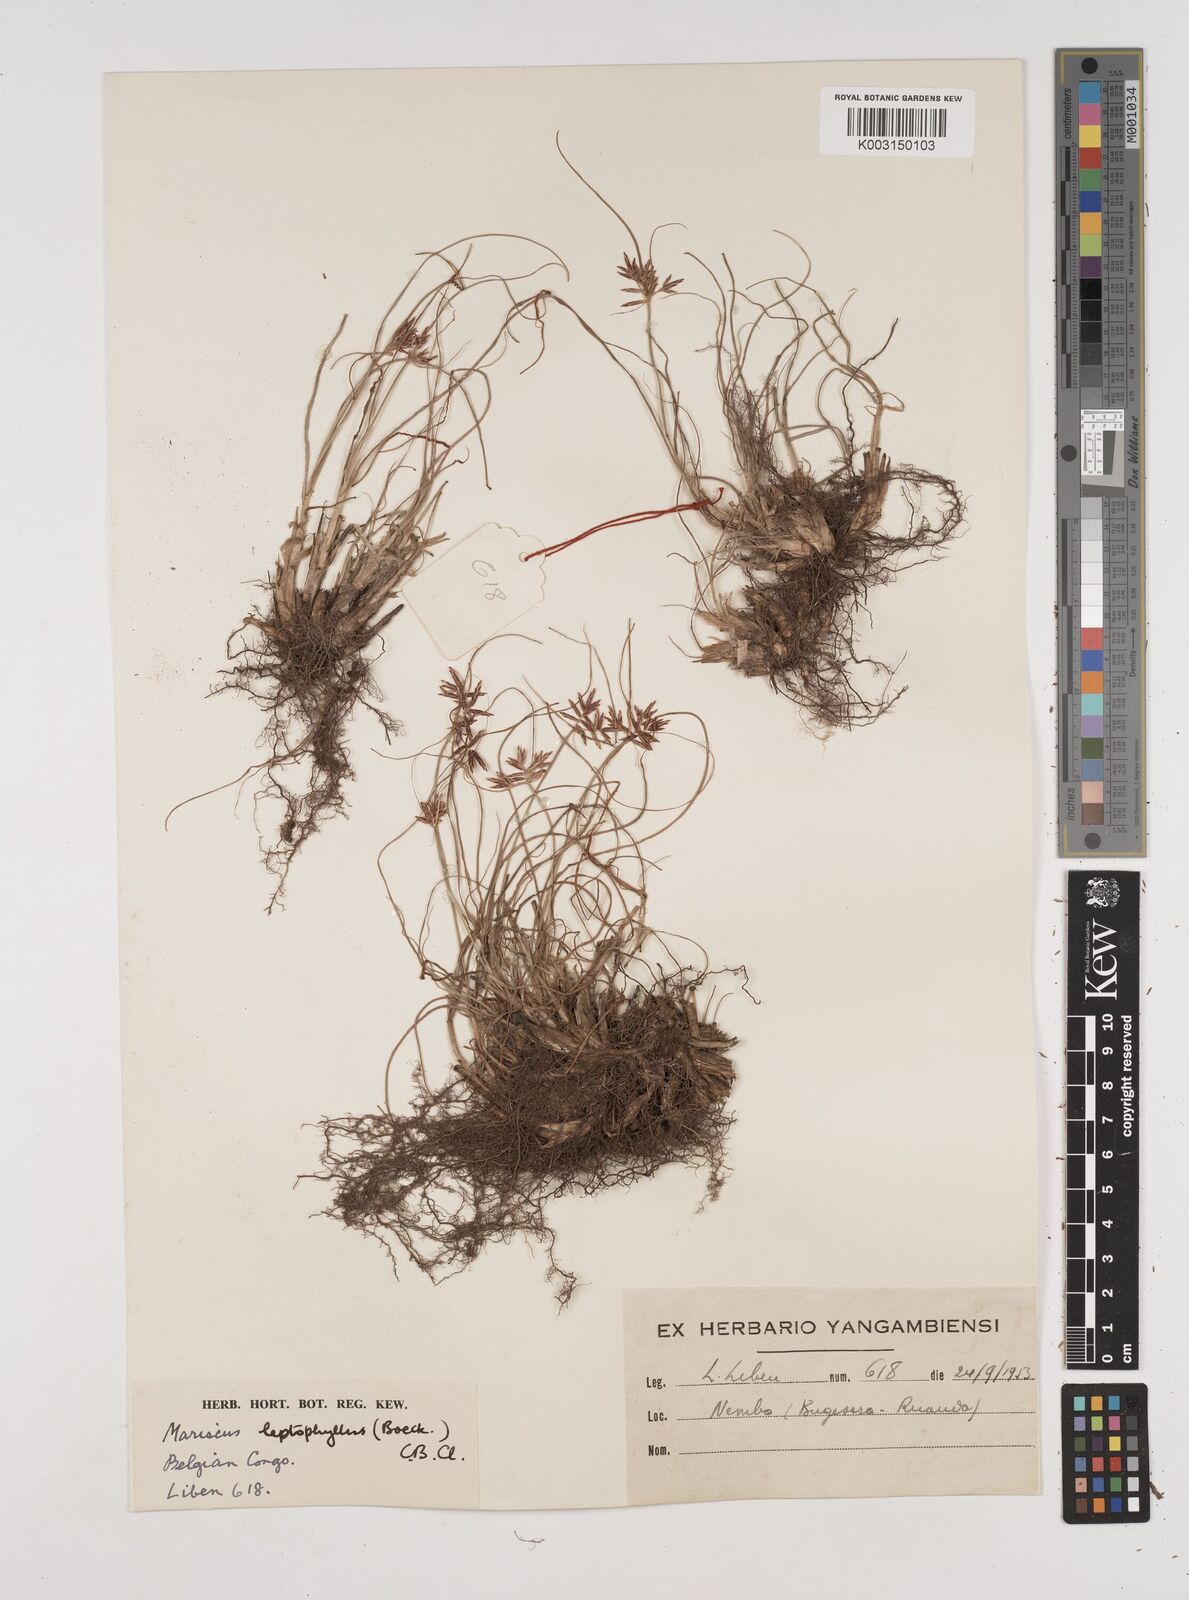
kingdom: Plantae
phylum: Tracheophyta
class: Liliopsida
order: Poales
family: Cyperaceae
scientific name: Cyperaceae
